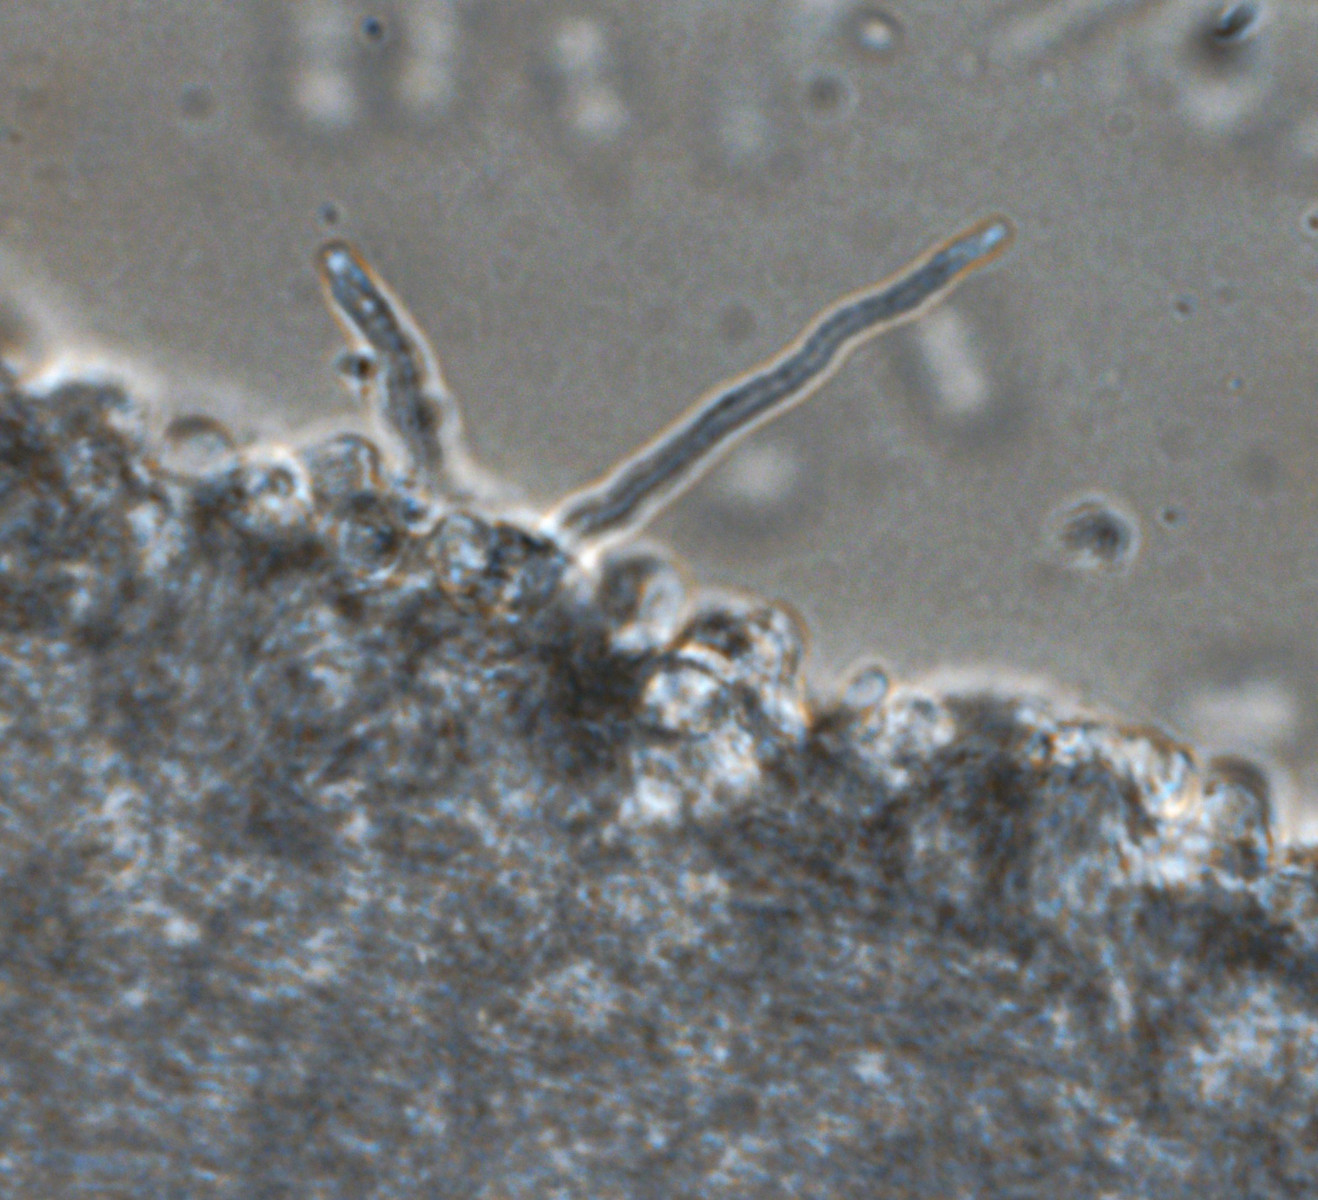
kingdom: Fungi
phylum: Basidiomycota
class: Agaricomycetes
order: Agaricales
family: Tricholomataceae
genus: Clitocybe
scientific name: Clitocybe agrestis
